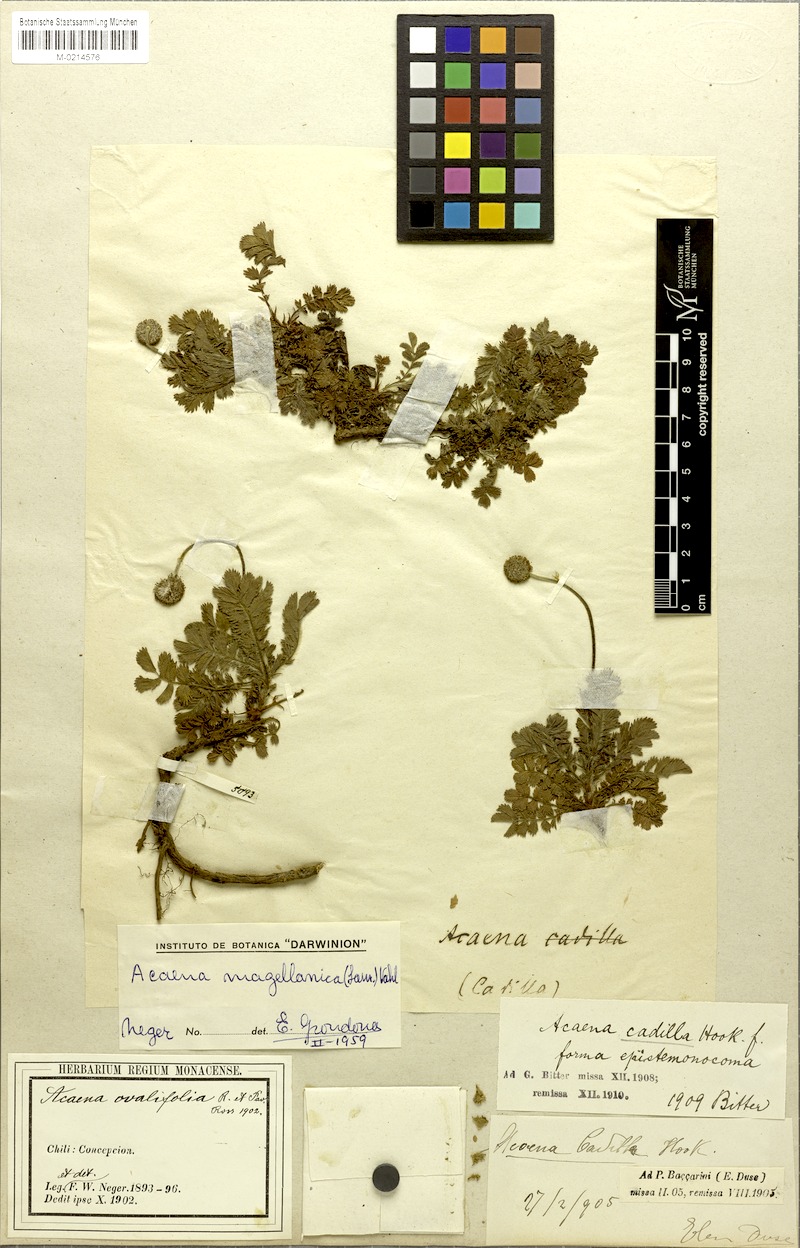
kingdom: Plantae
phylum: Tracheophyta
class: Magnoliopsida
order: Rosales
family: Rosaceae
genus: Acaena
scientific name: Acaena magellanica
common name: New zealand burr
